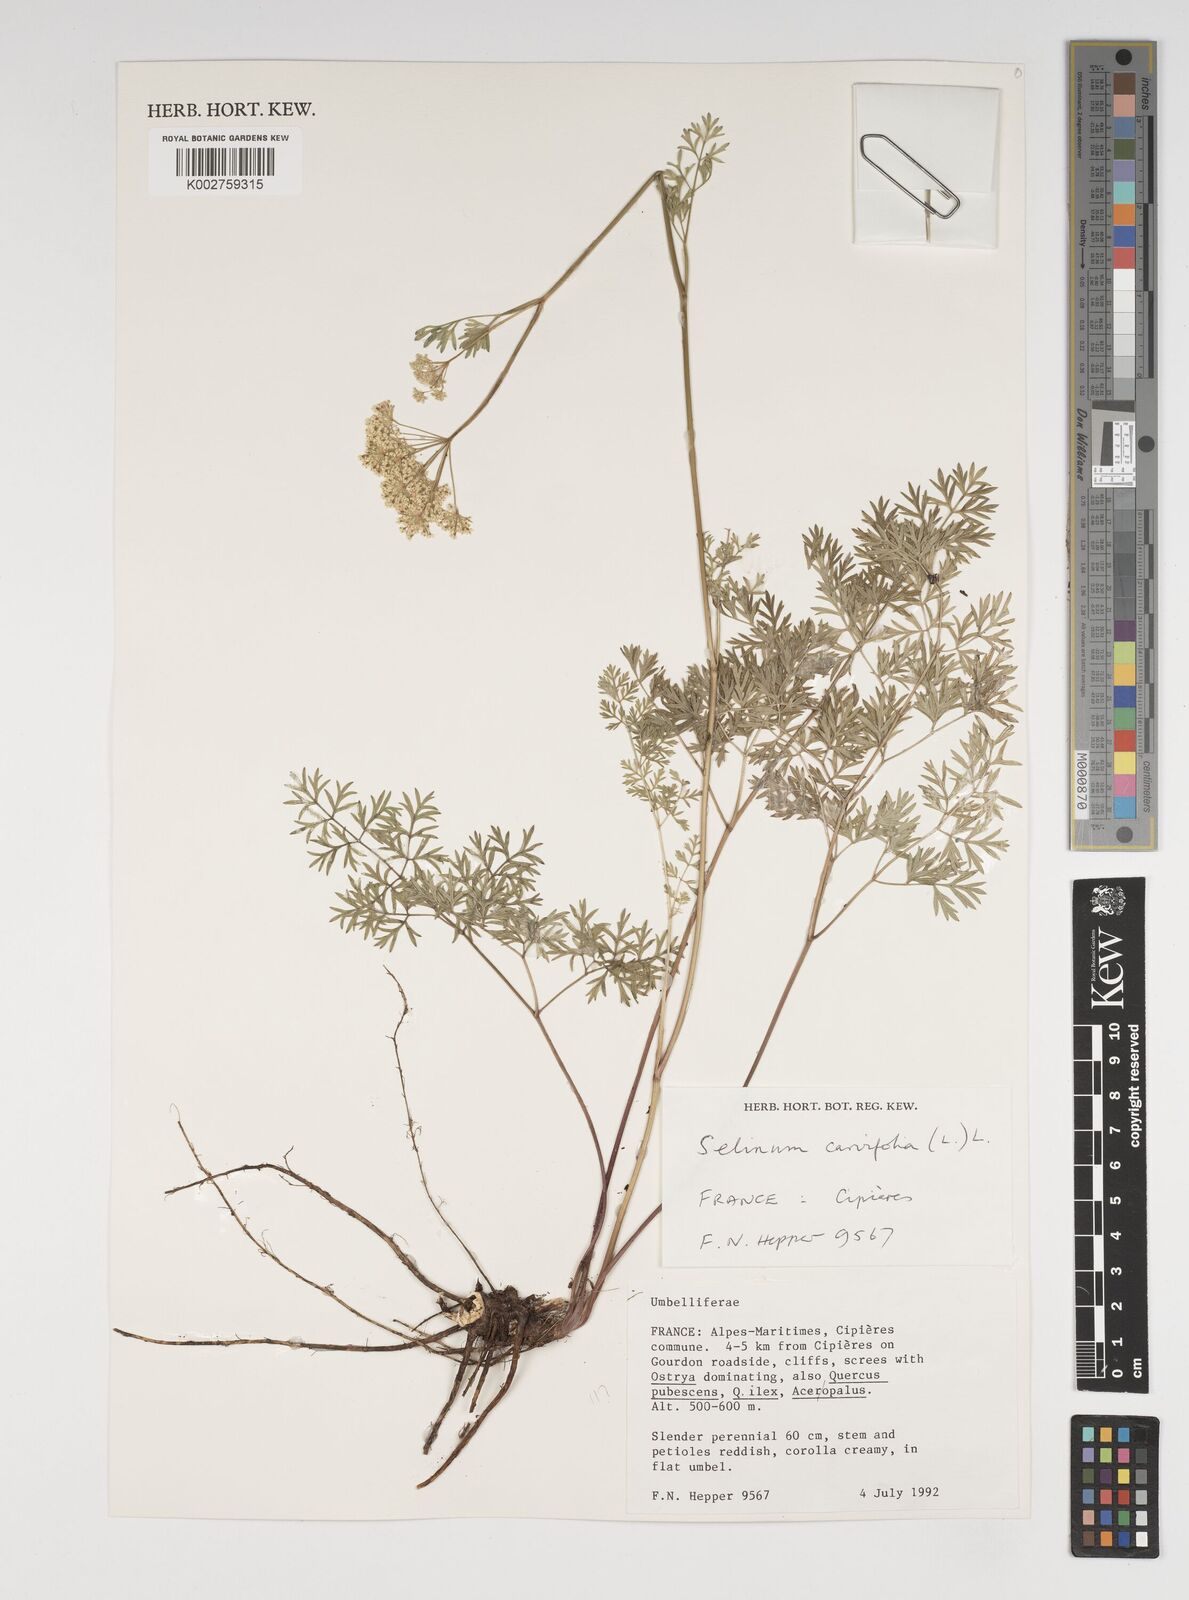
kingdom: Plantae
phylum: Tracheophyta
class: Magnoliopsida
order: Apiales
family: Apiaceae
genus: Selinum
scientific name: Selinum carvifolia
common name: Cambridge milk-parsley
